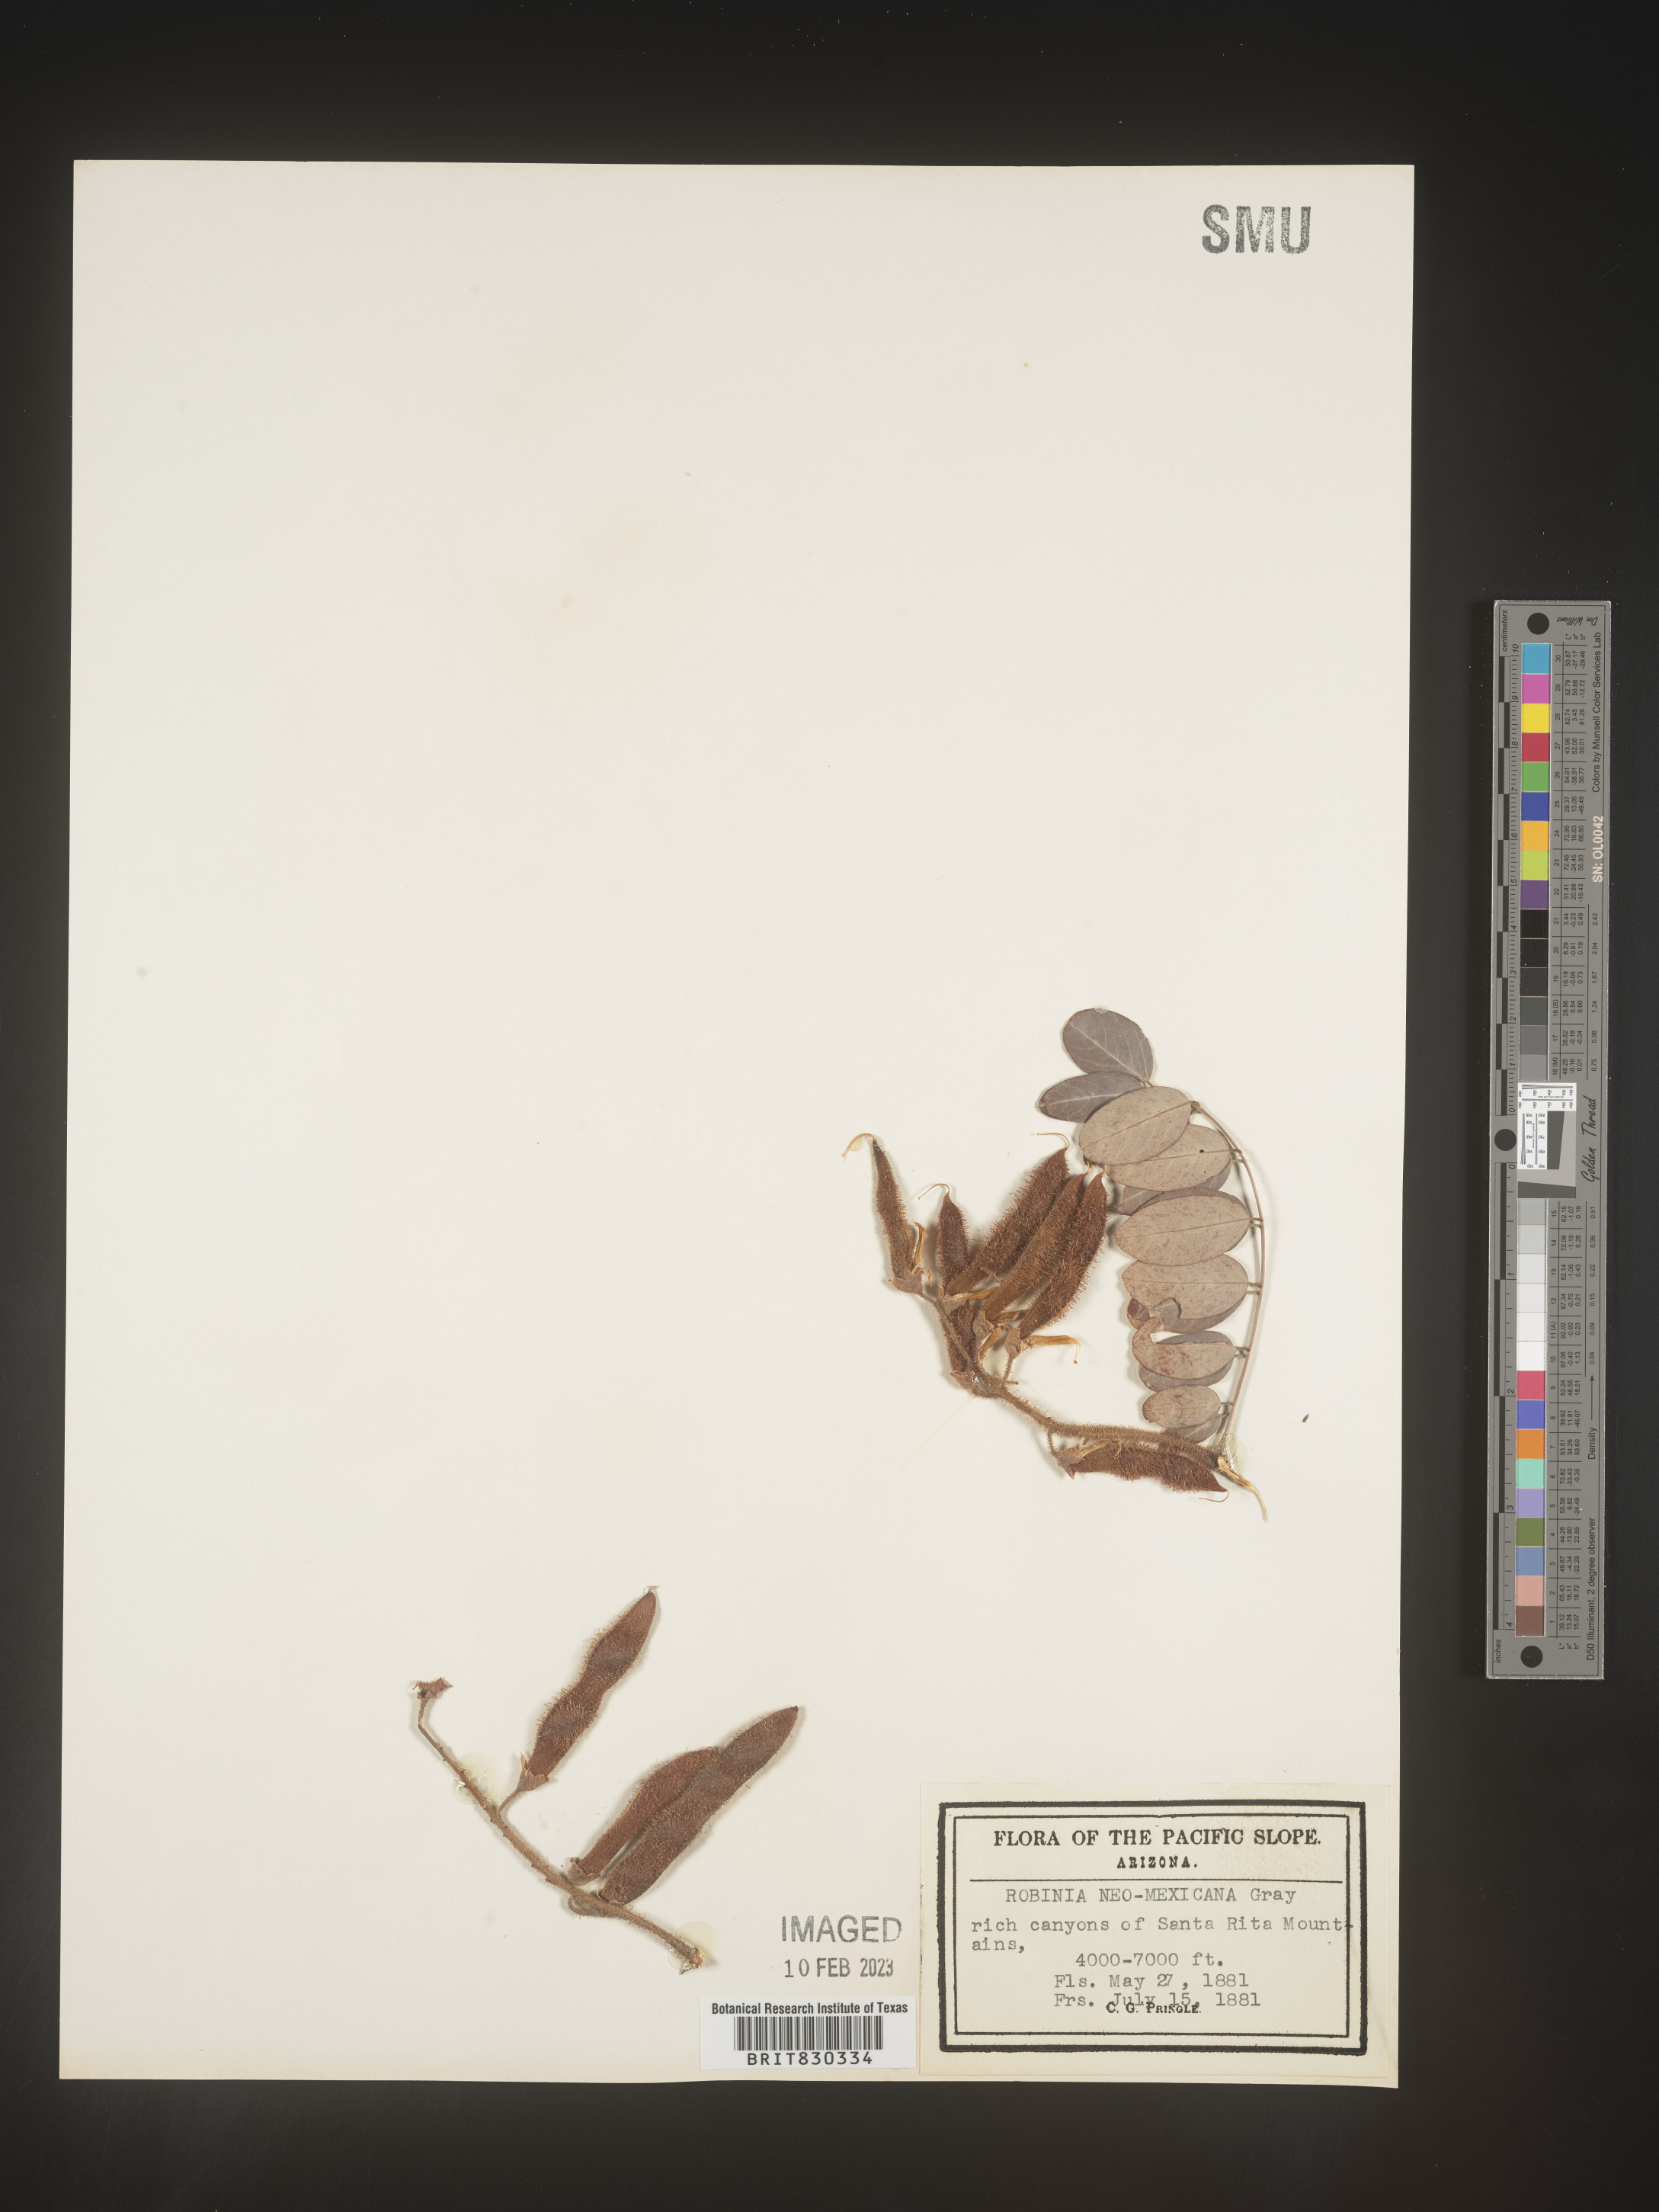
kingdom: Plantae
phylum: Tracheophyta
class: Magnoliopsida
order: Fabales
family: Fabaceae
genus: Robinia
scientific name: Robinia neomexicana
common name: New mexico locust
